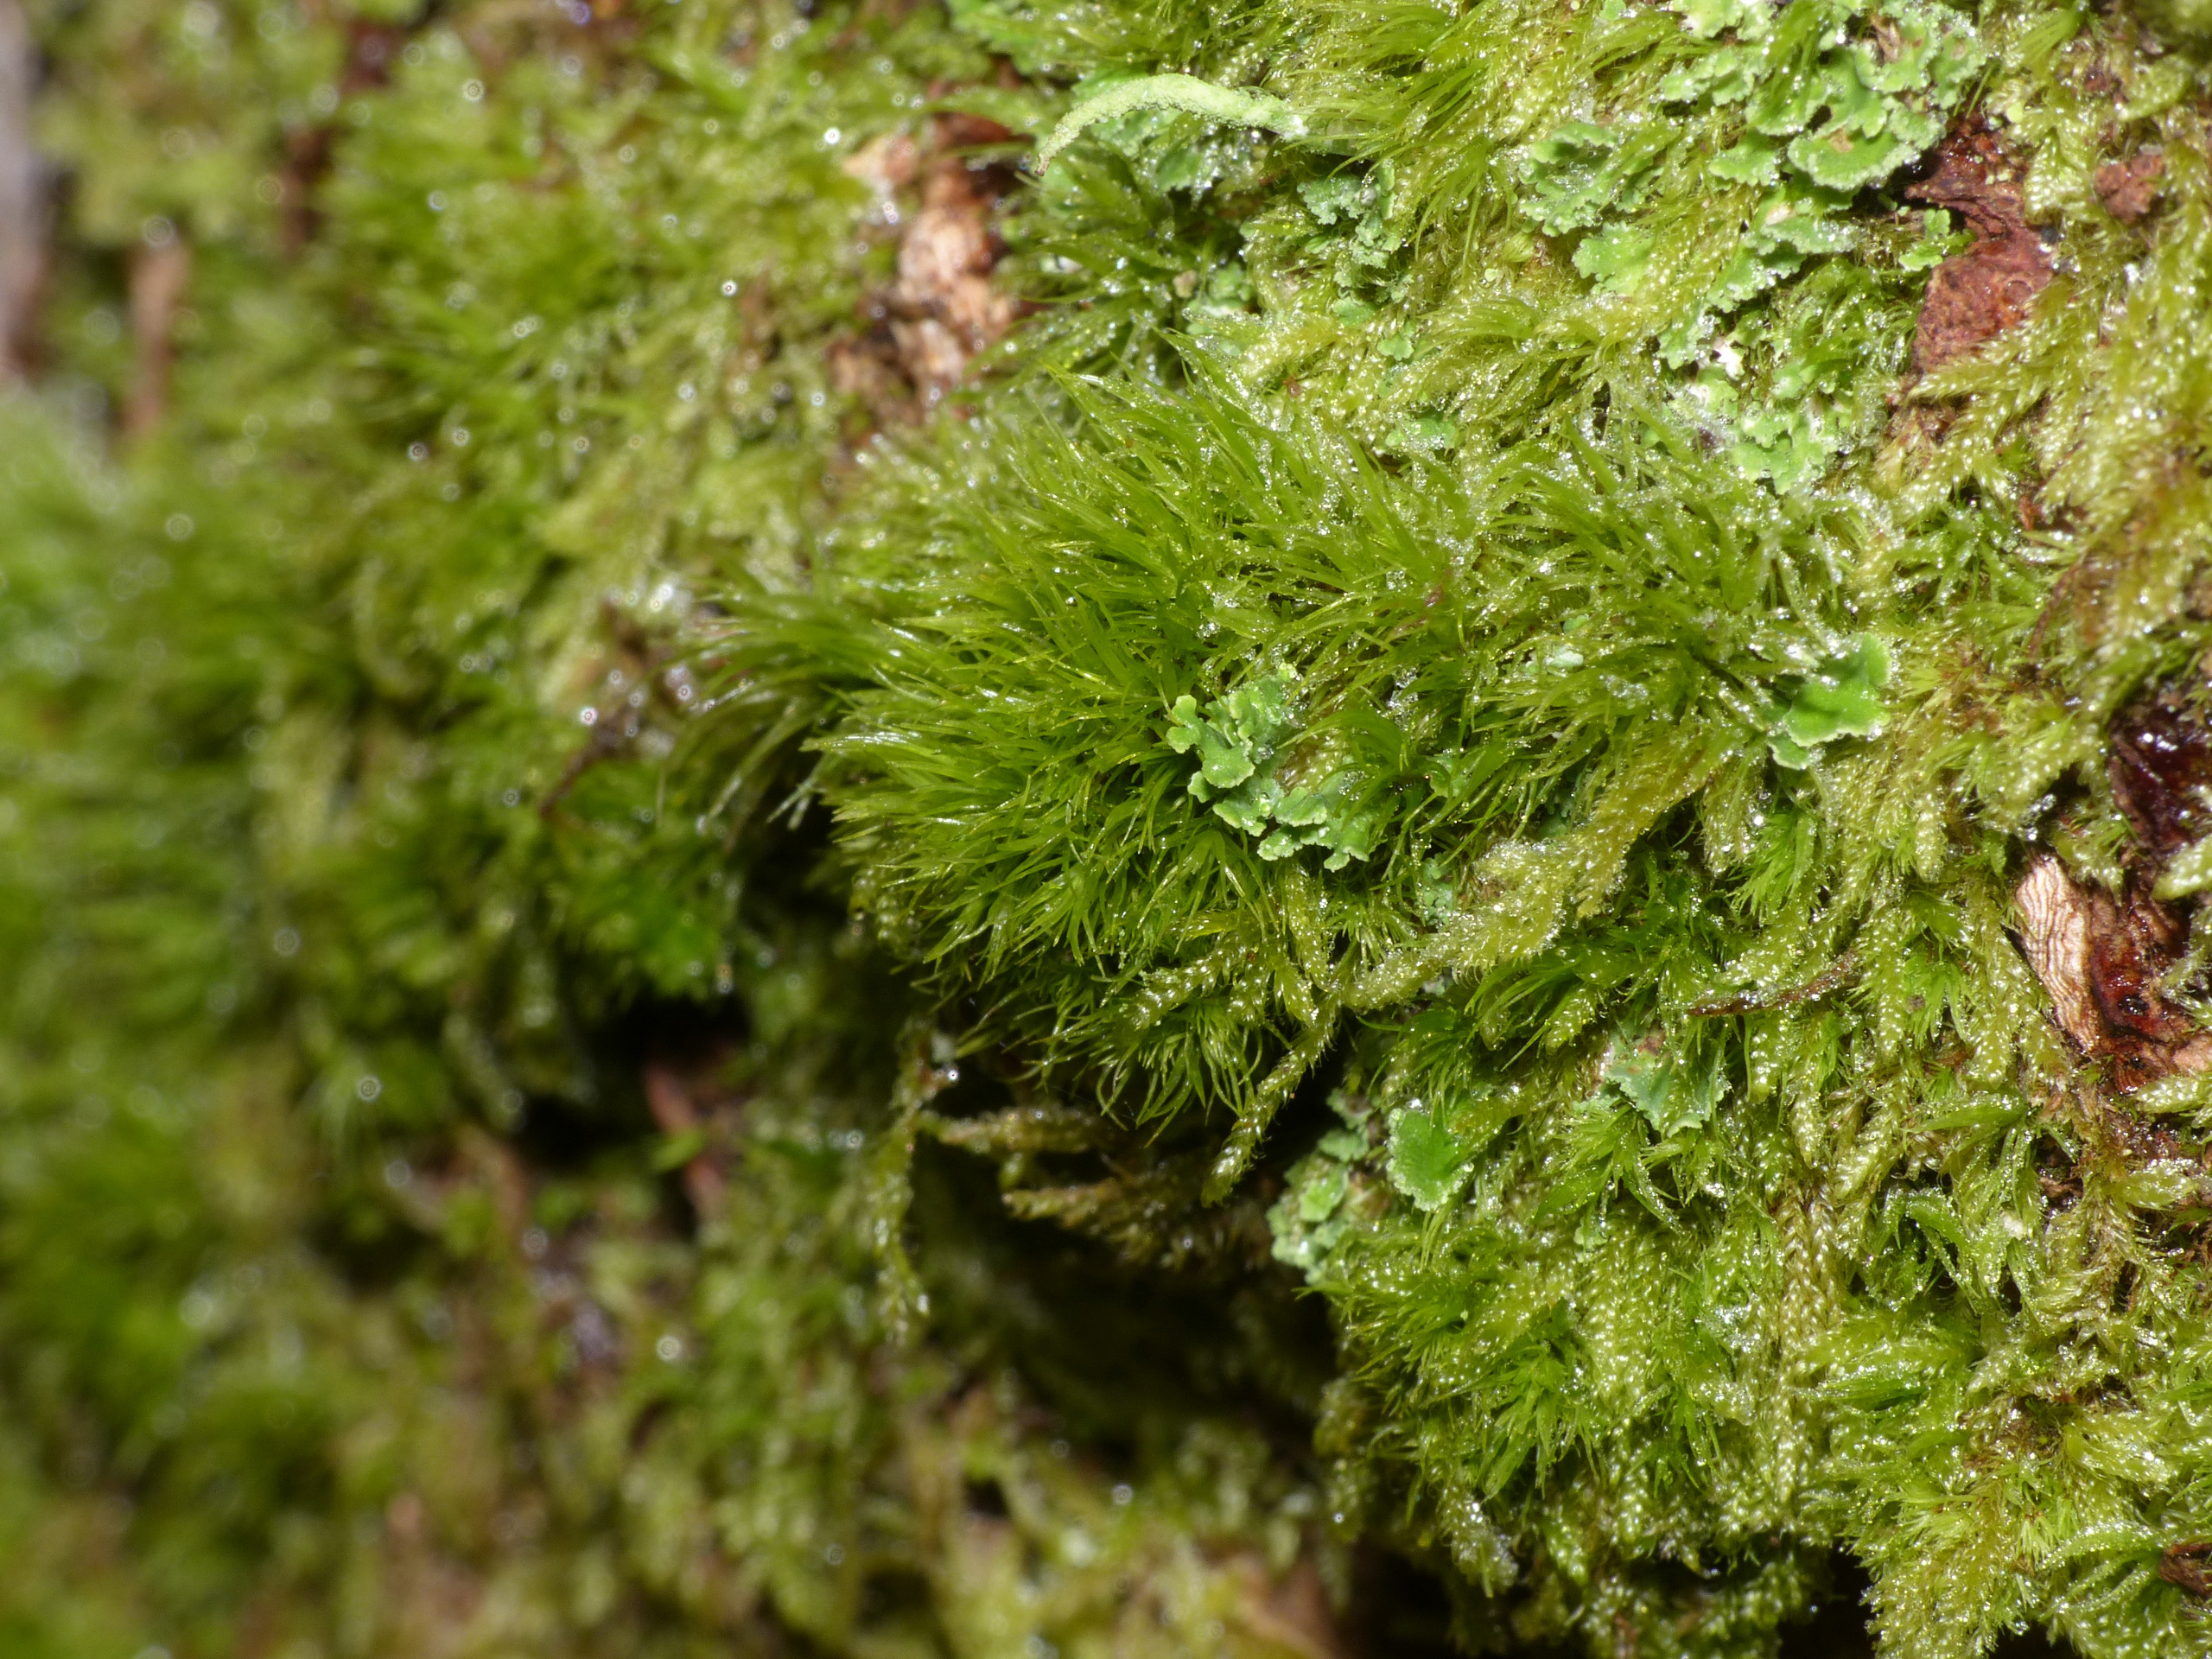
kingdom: Plantae
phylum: Bryophyta
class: Bryopsida
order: Dicranales
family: Dicranaceae
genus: Orthodicranum
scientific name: Orthodicranum montanum
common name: Tæt tyndvinge
